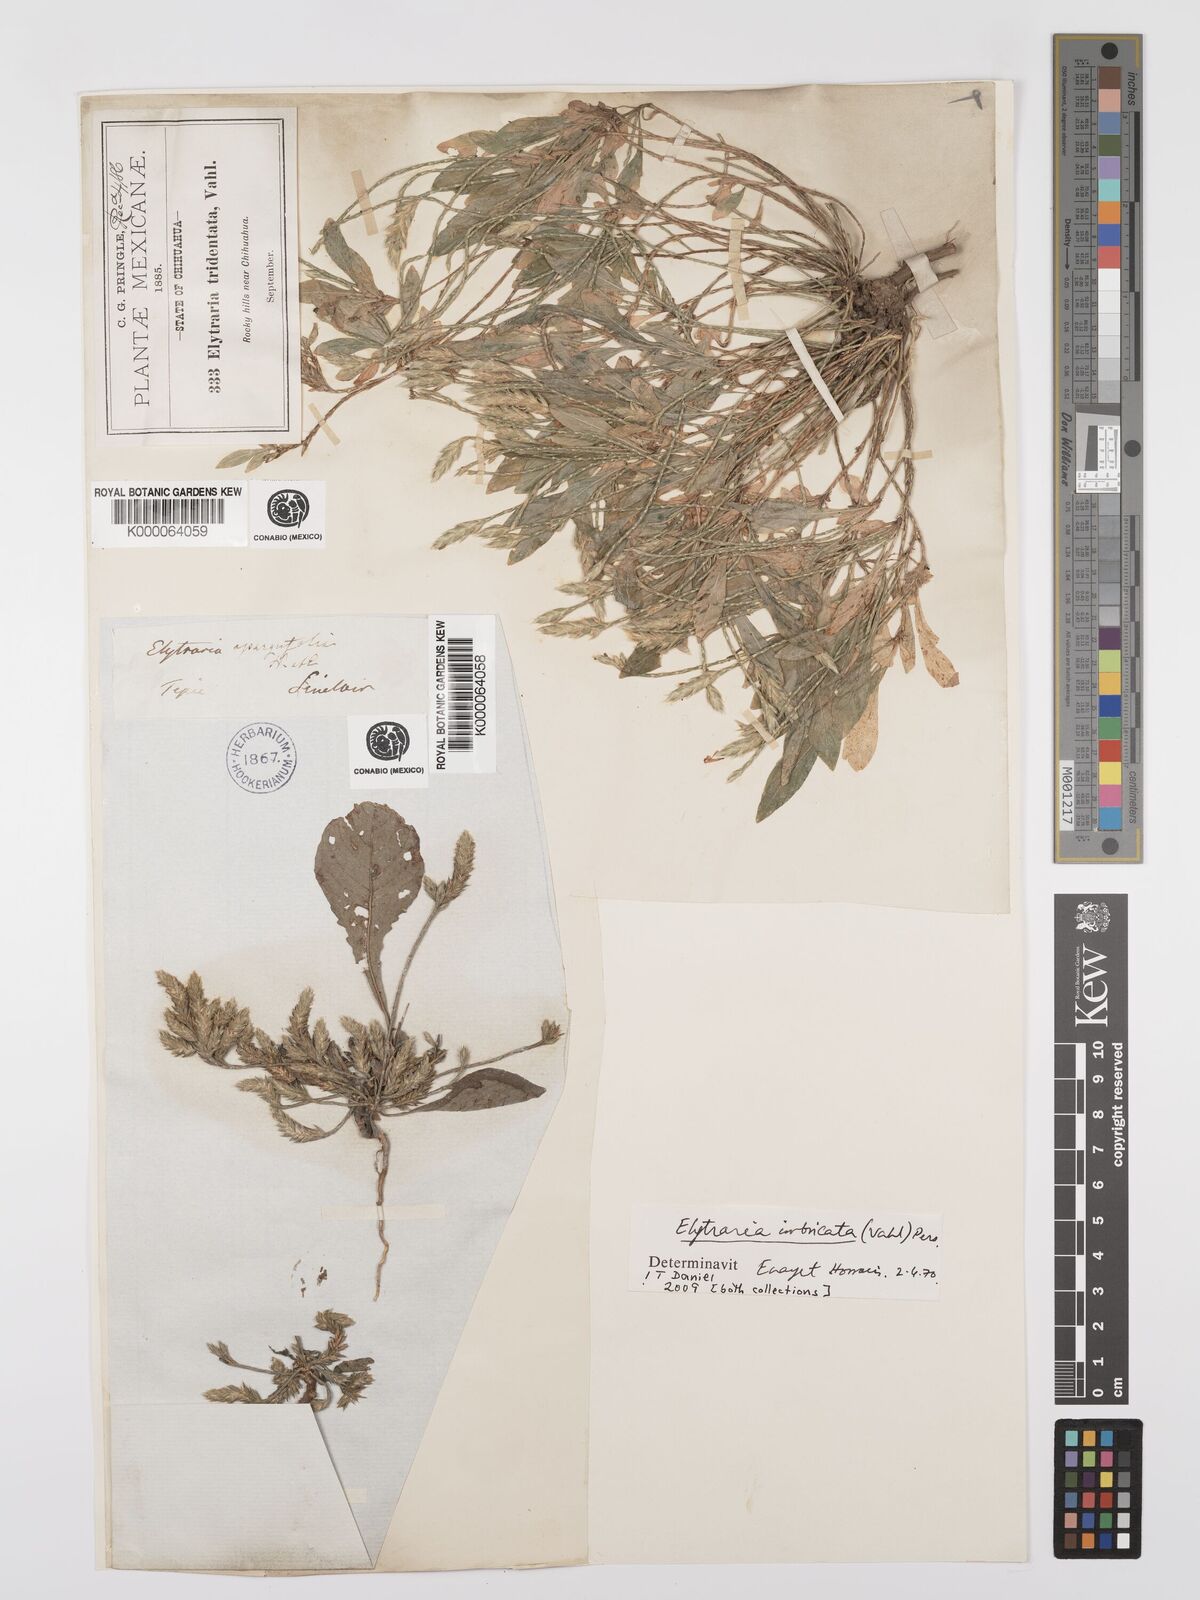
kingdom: Plantae
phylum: Tracheophyta
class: Magnoliopsida
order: Lamiales
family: Acanthaceae
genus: Elytraria
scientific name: Elytraria imbricata
